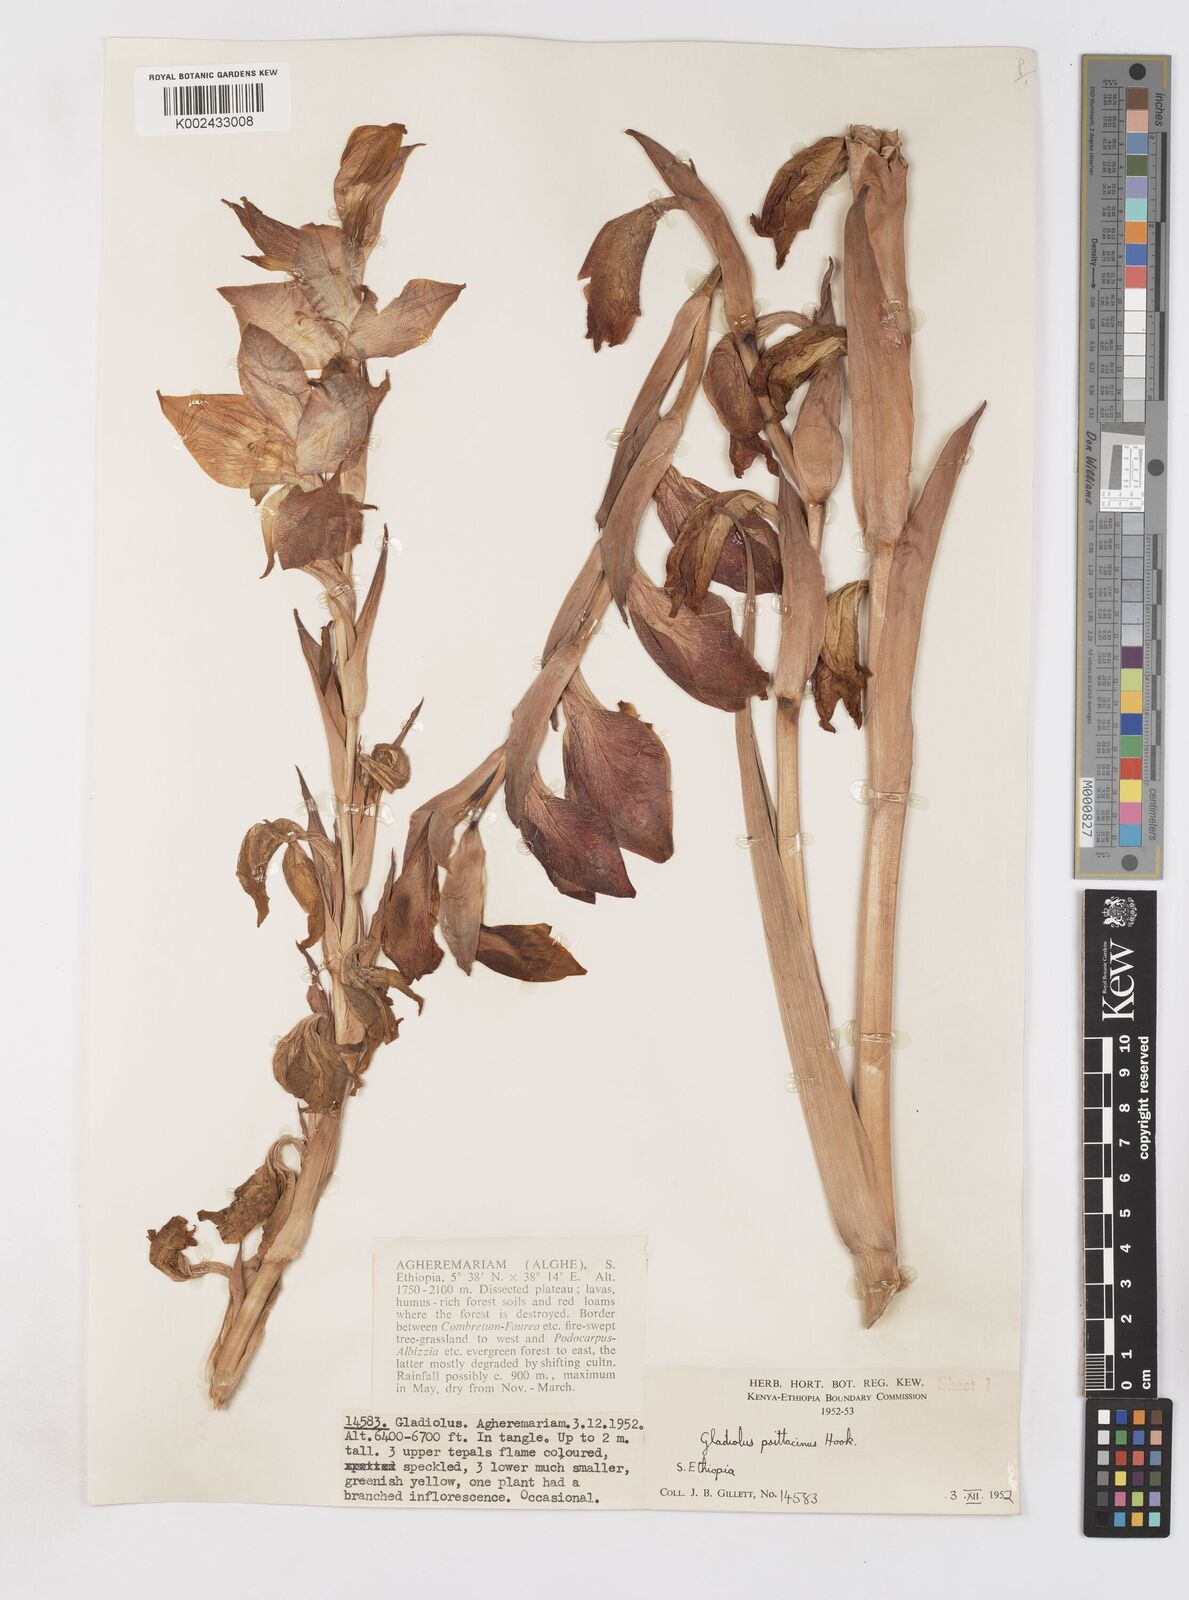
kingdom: Plantae
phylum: Tracheophyta
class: Liliopsida
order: Asparagales
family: Iridaceae
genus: Gladiolus
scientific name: Gladiolus dalenii
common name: Cornflag
